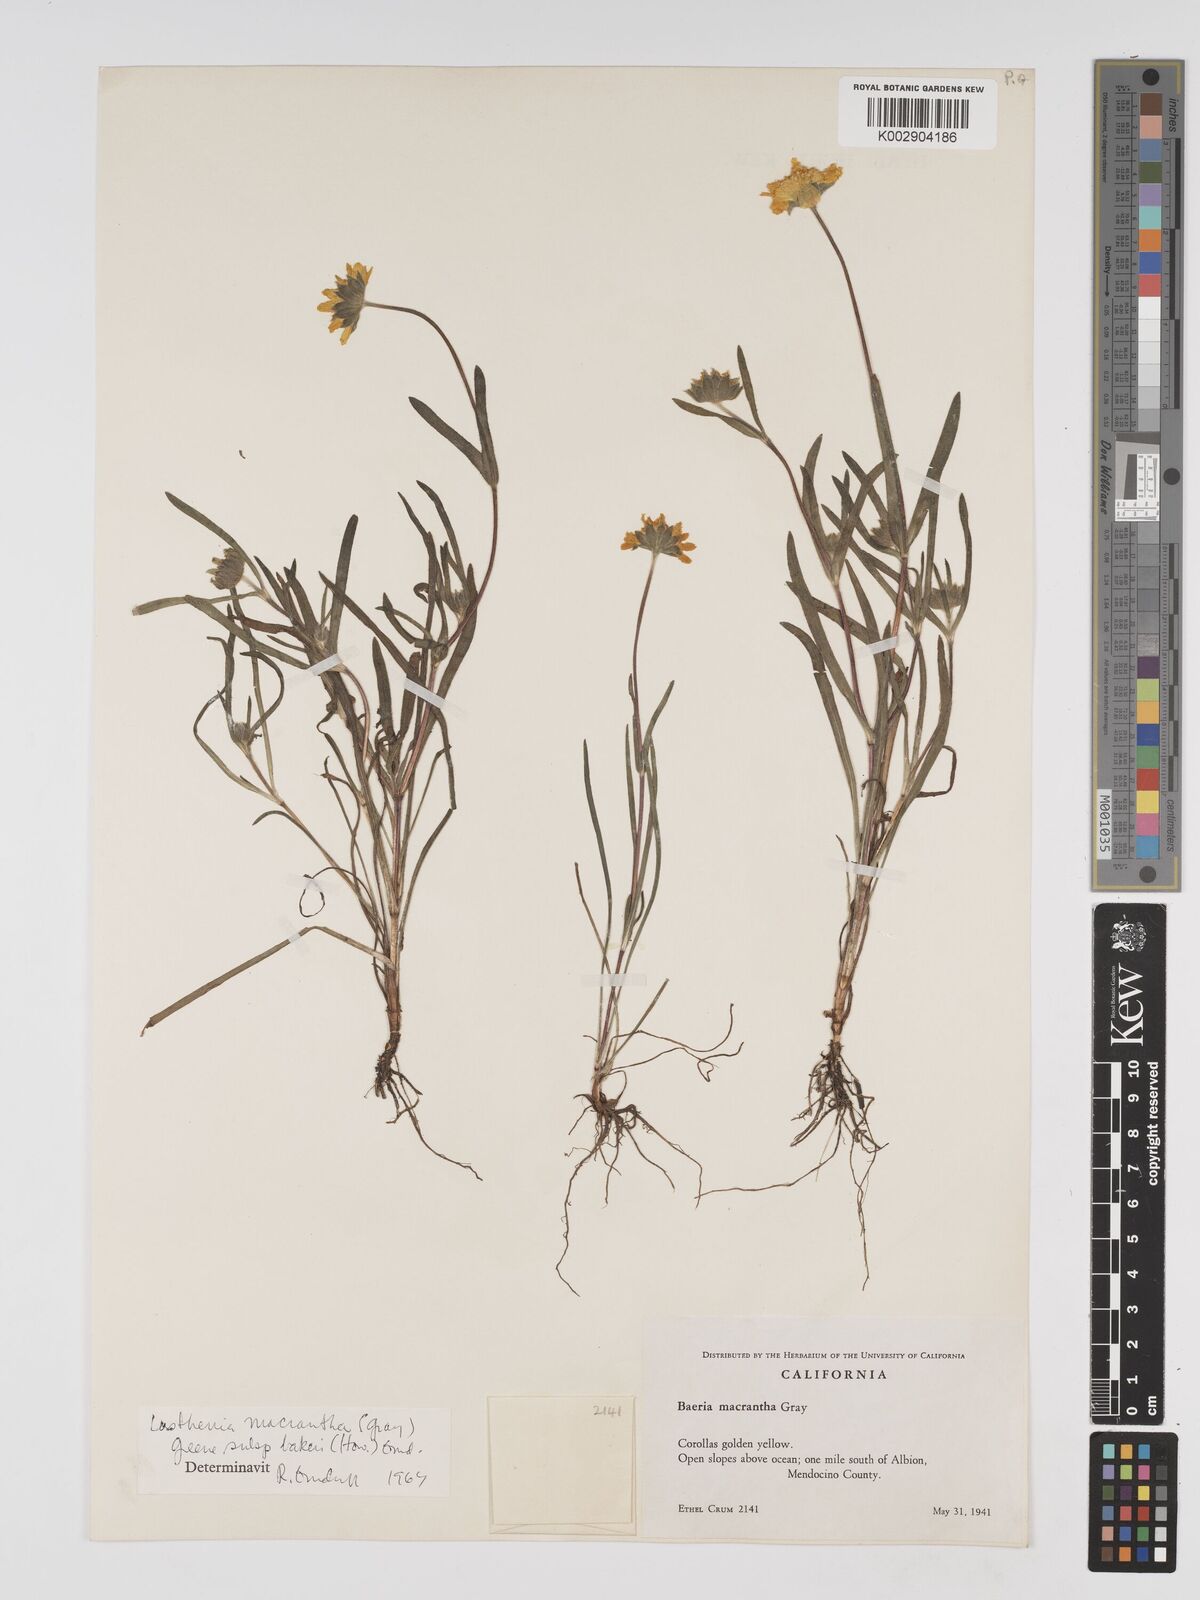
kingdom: Plantae
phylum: Tracheophyta
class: Magnoliopsida
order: Asterales
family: Asteraceae
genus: Lasthenia
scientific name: Lasthenia californica
